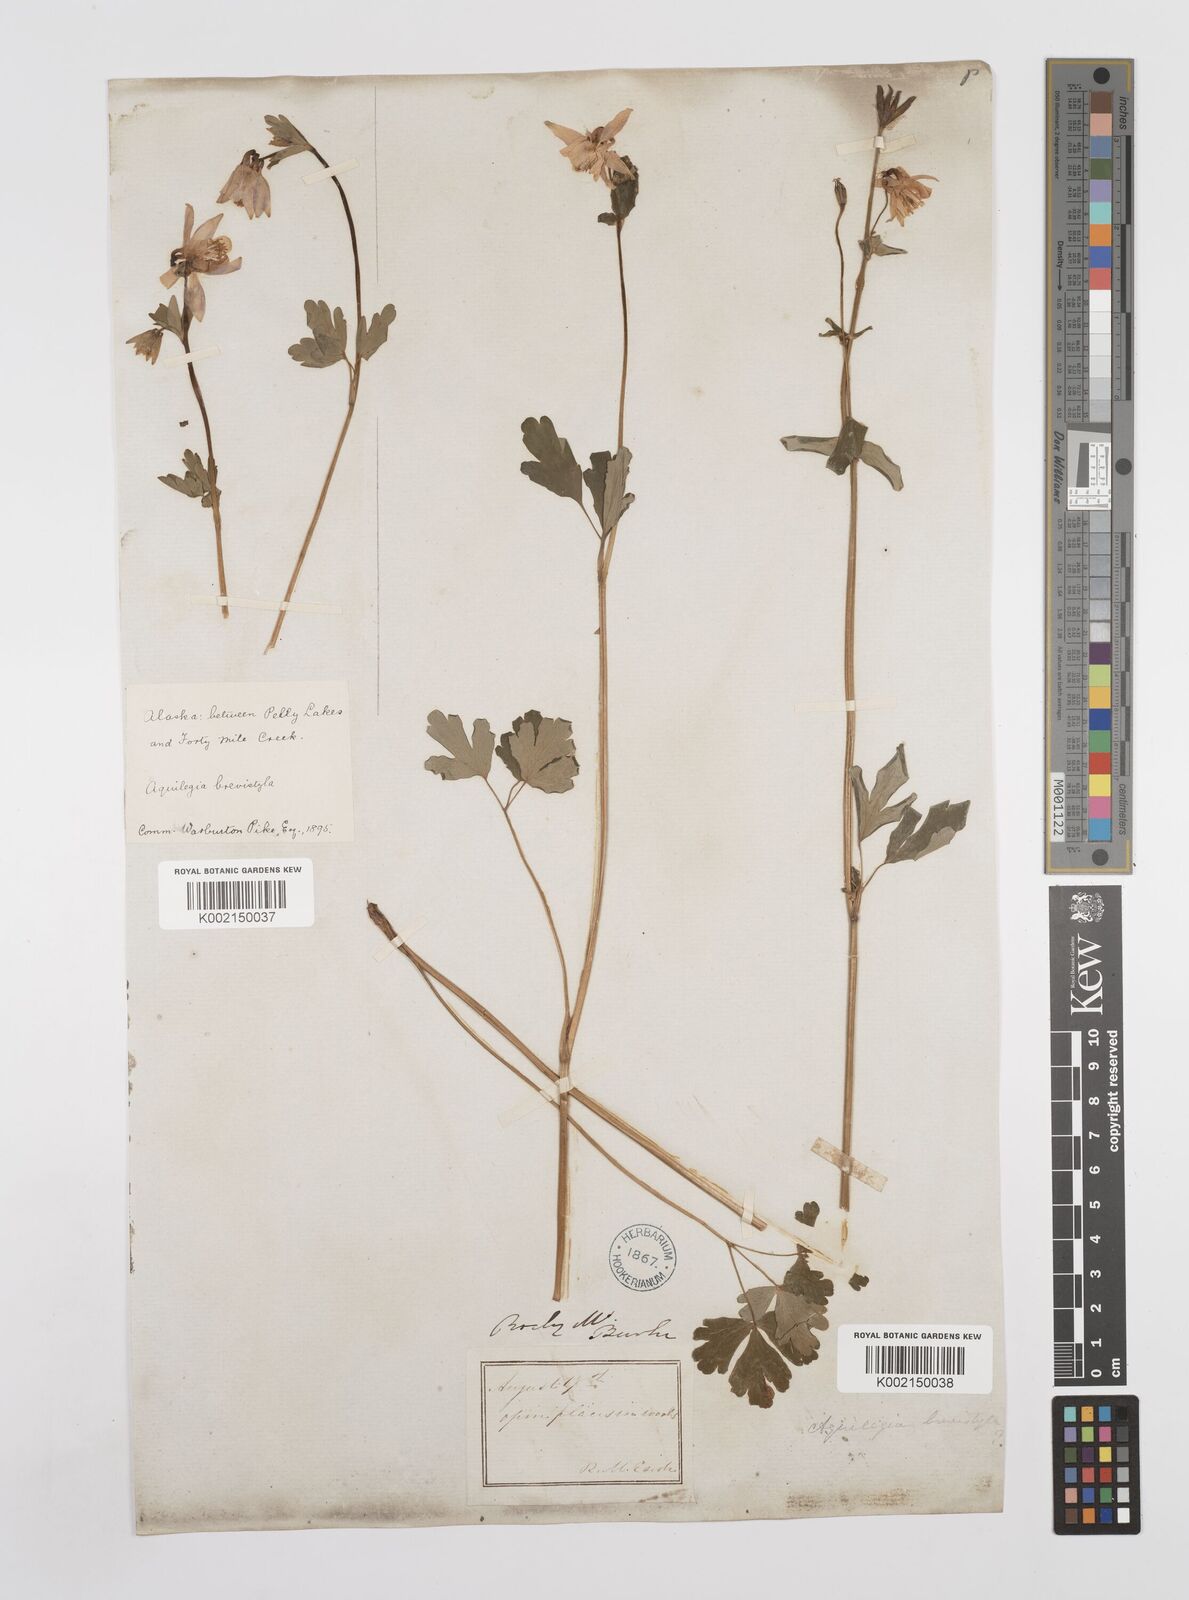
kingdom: Plantae
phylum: Tracheophyta
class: Magnoliopsida
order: Ranunculales
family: Ranunculaceae
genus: Aquilegia
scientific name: Aquilegia brevistyla
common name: Yukon columbine
